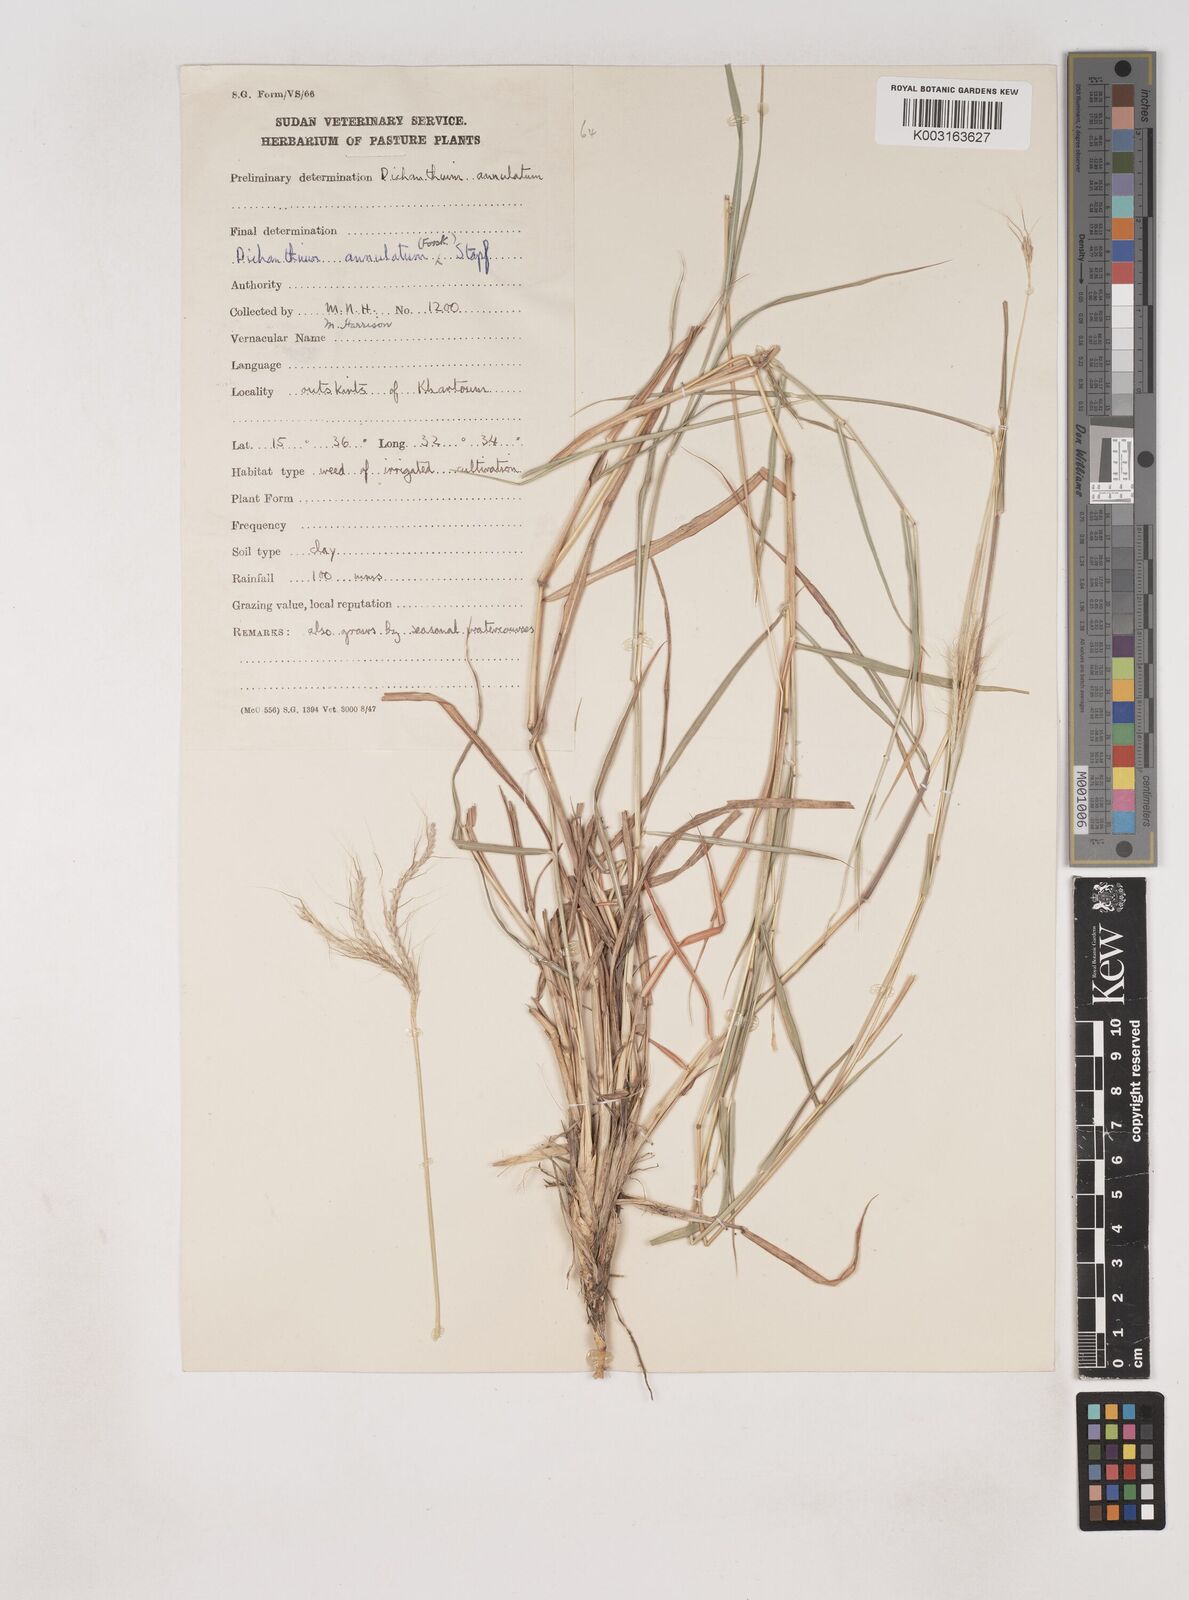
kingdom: Plantae
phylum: Tracheophyta
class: Liliopsida
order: Poales
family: Poaceae
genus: Dichanthium
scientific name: Dichanthium annulatum
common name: Kleberg's bluestem
